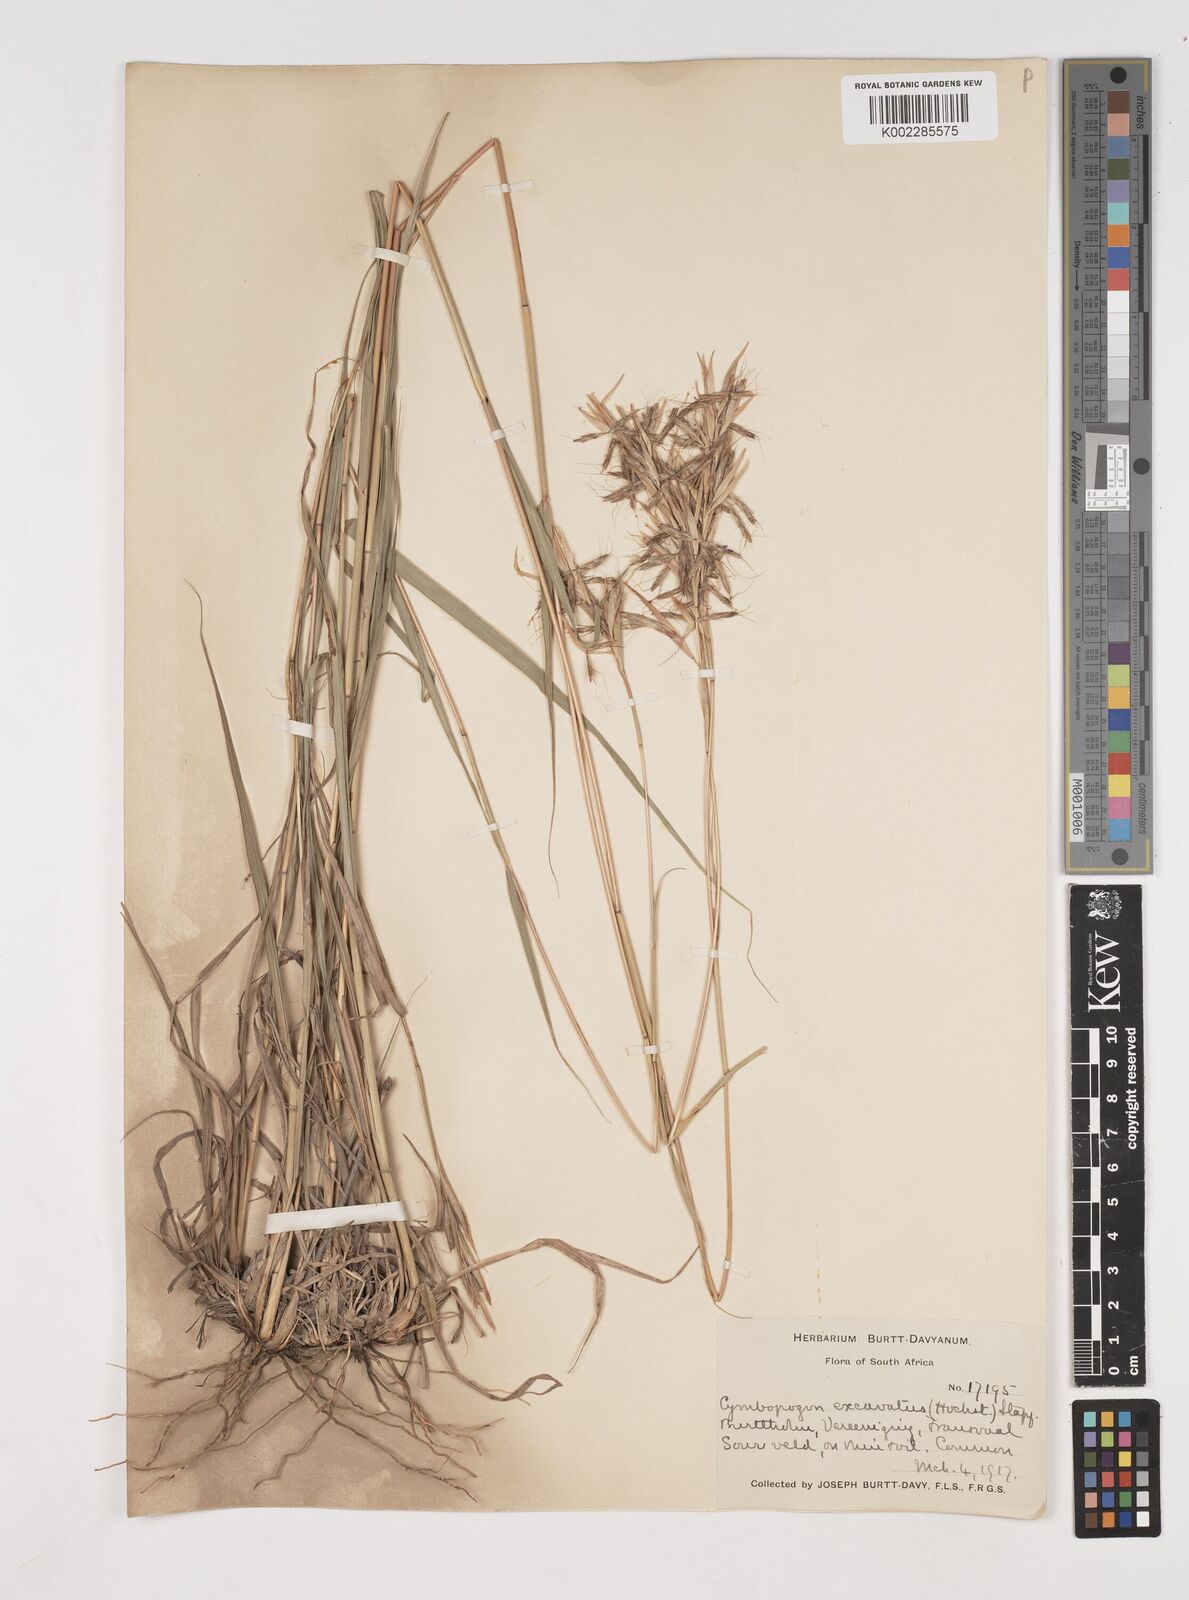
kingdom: Plantae
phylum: Tracheophyta
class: Liliopsida
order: Poales
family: Poaceae
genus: Cymbopogon
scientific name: Cymbopogon caesius
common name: Kachi grass
